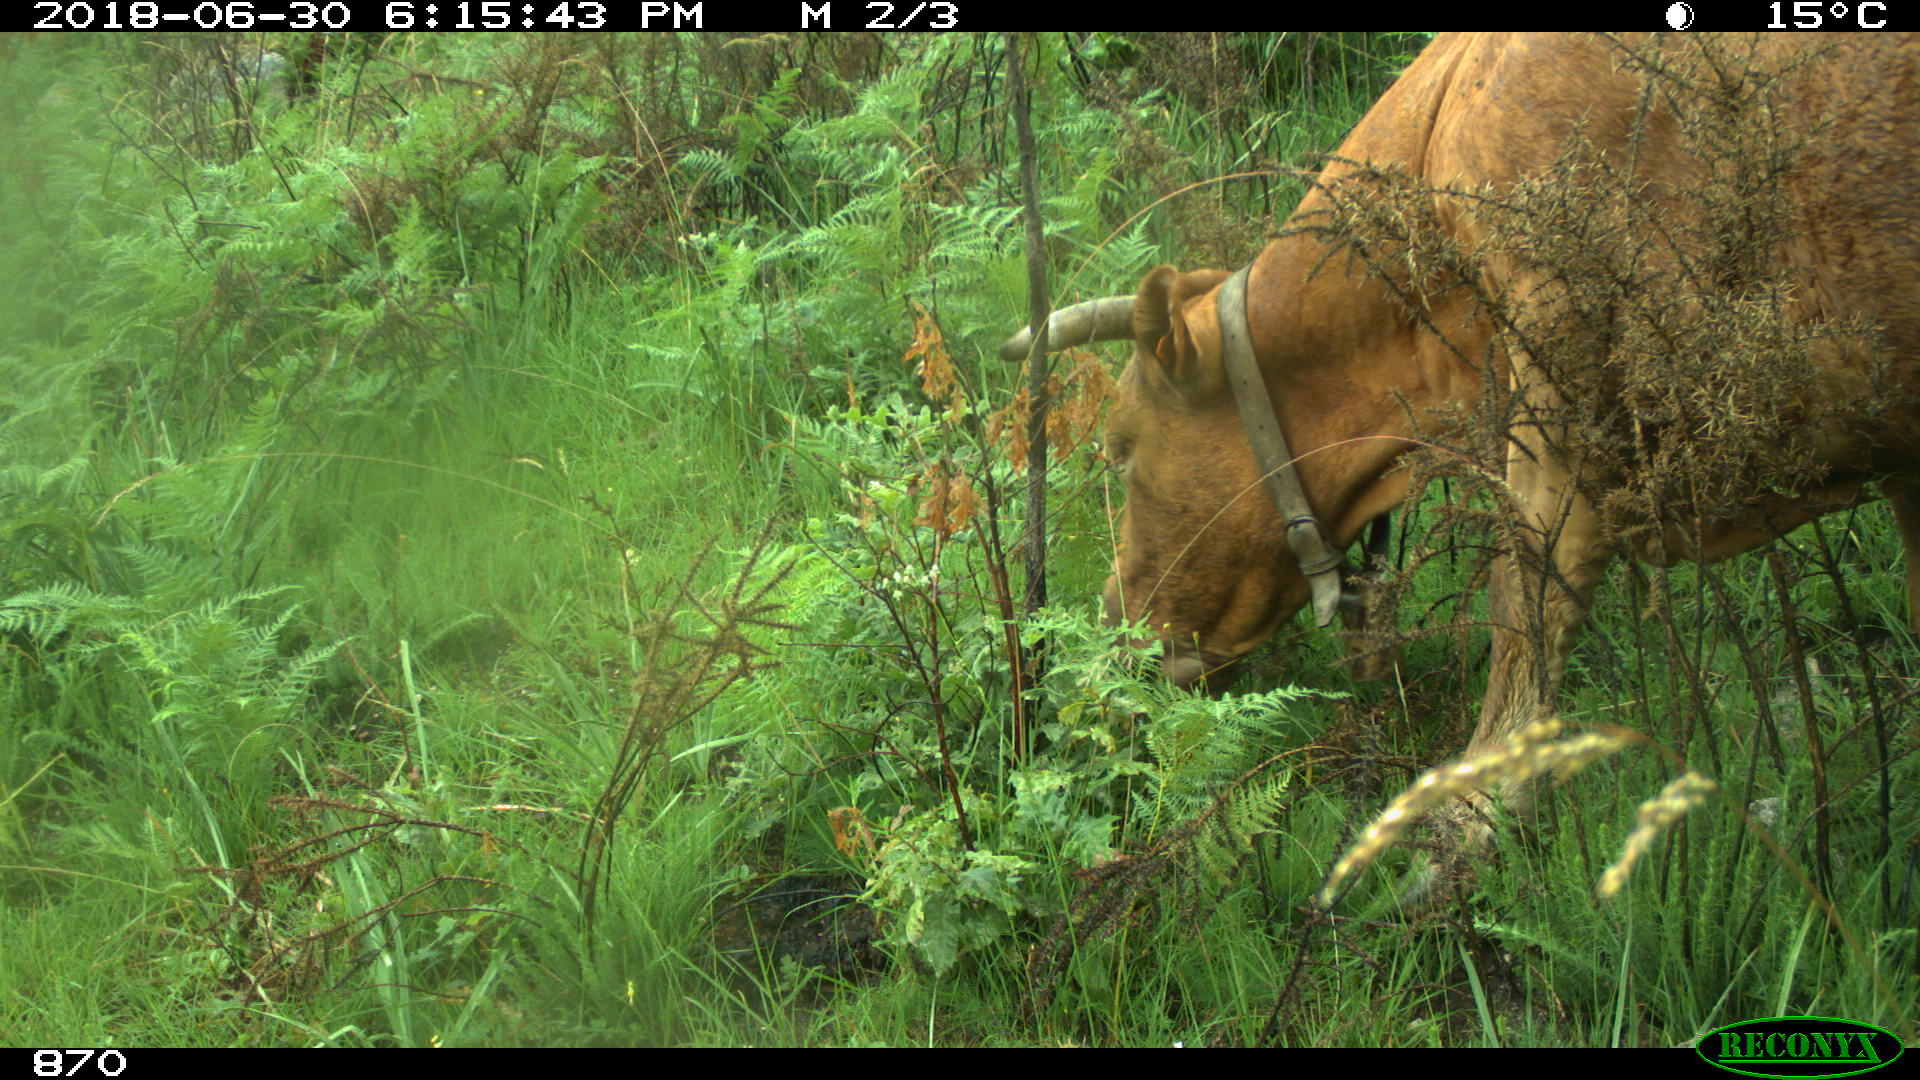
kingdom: Animalia
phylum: Chordata
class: Mammalia
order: Artiodactyla
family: Bovidae
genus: Bos
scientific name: Bos taurus
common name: Domesticated cattle
